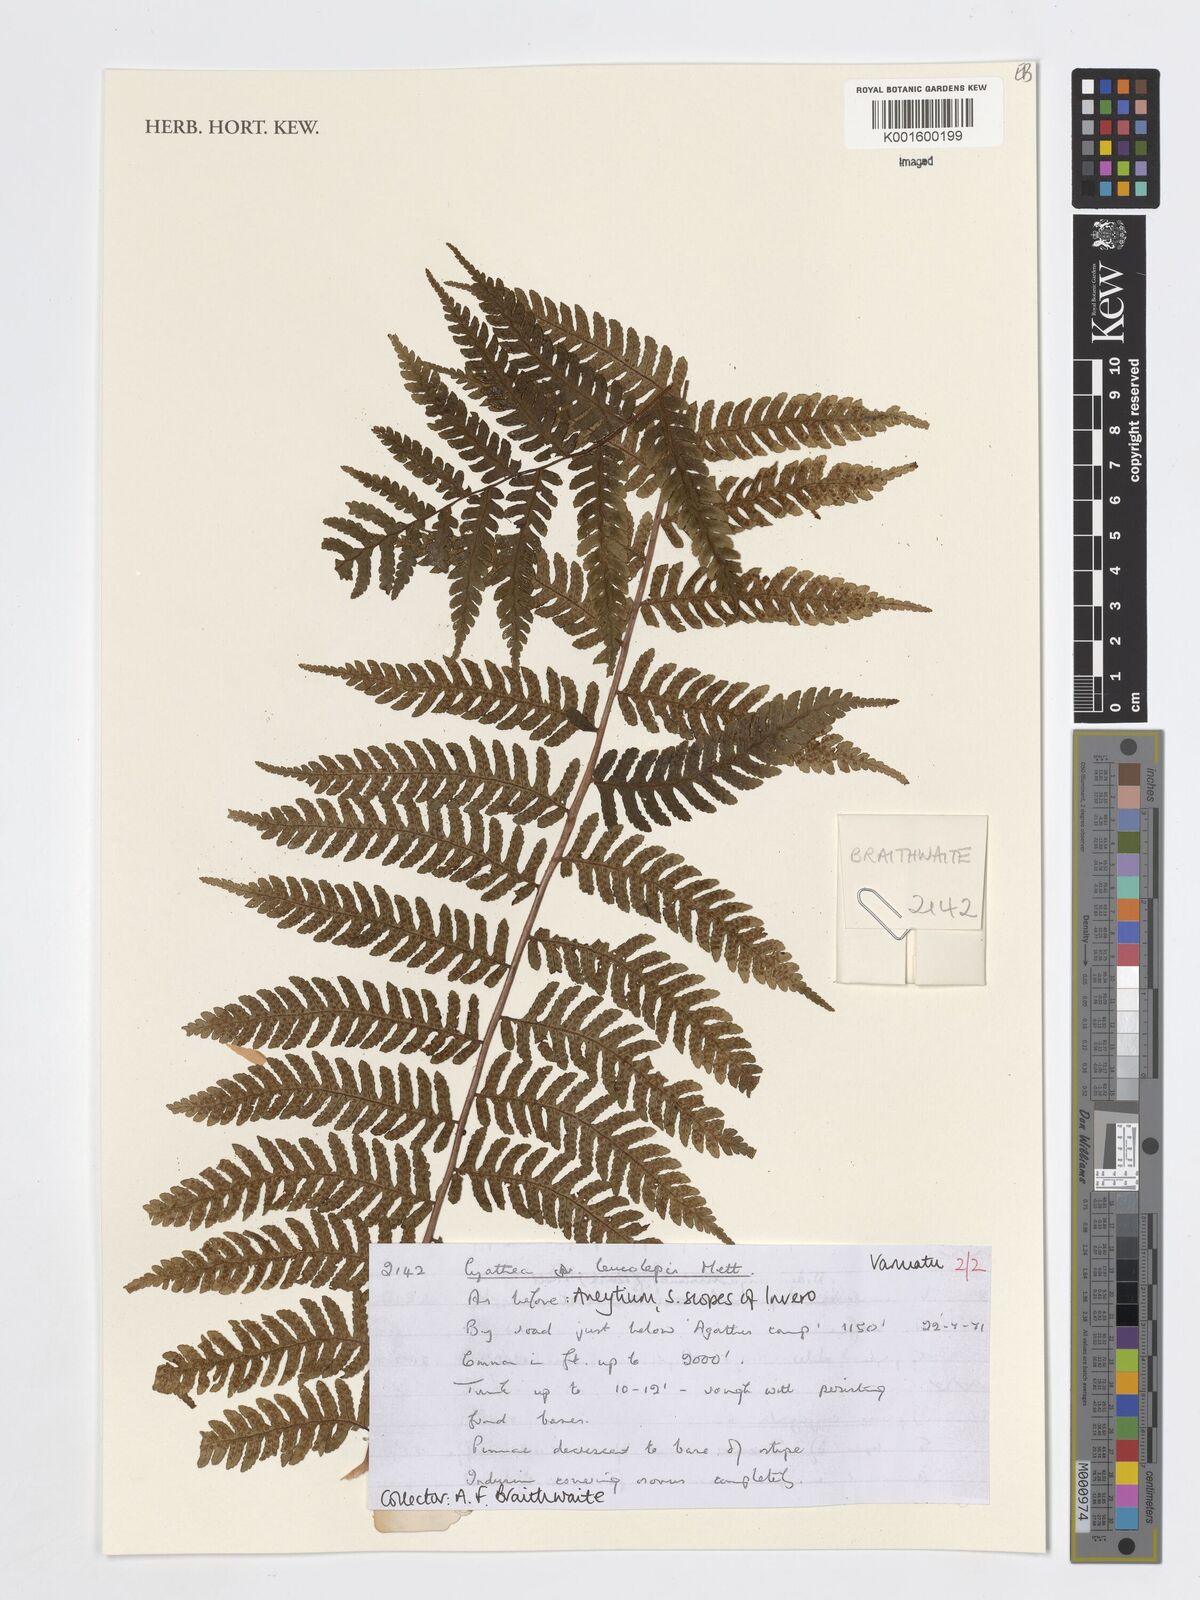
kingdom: Plantae
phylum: Tracheophyta
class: Polypodiopsida
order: Cyatheales
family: Cyatheaceae
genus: Sphaeropteris
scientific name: Sphaeropteris leucolepis
